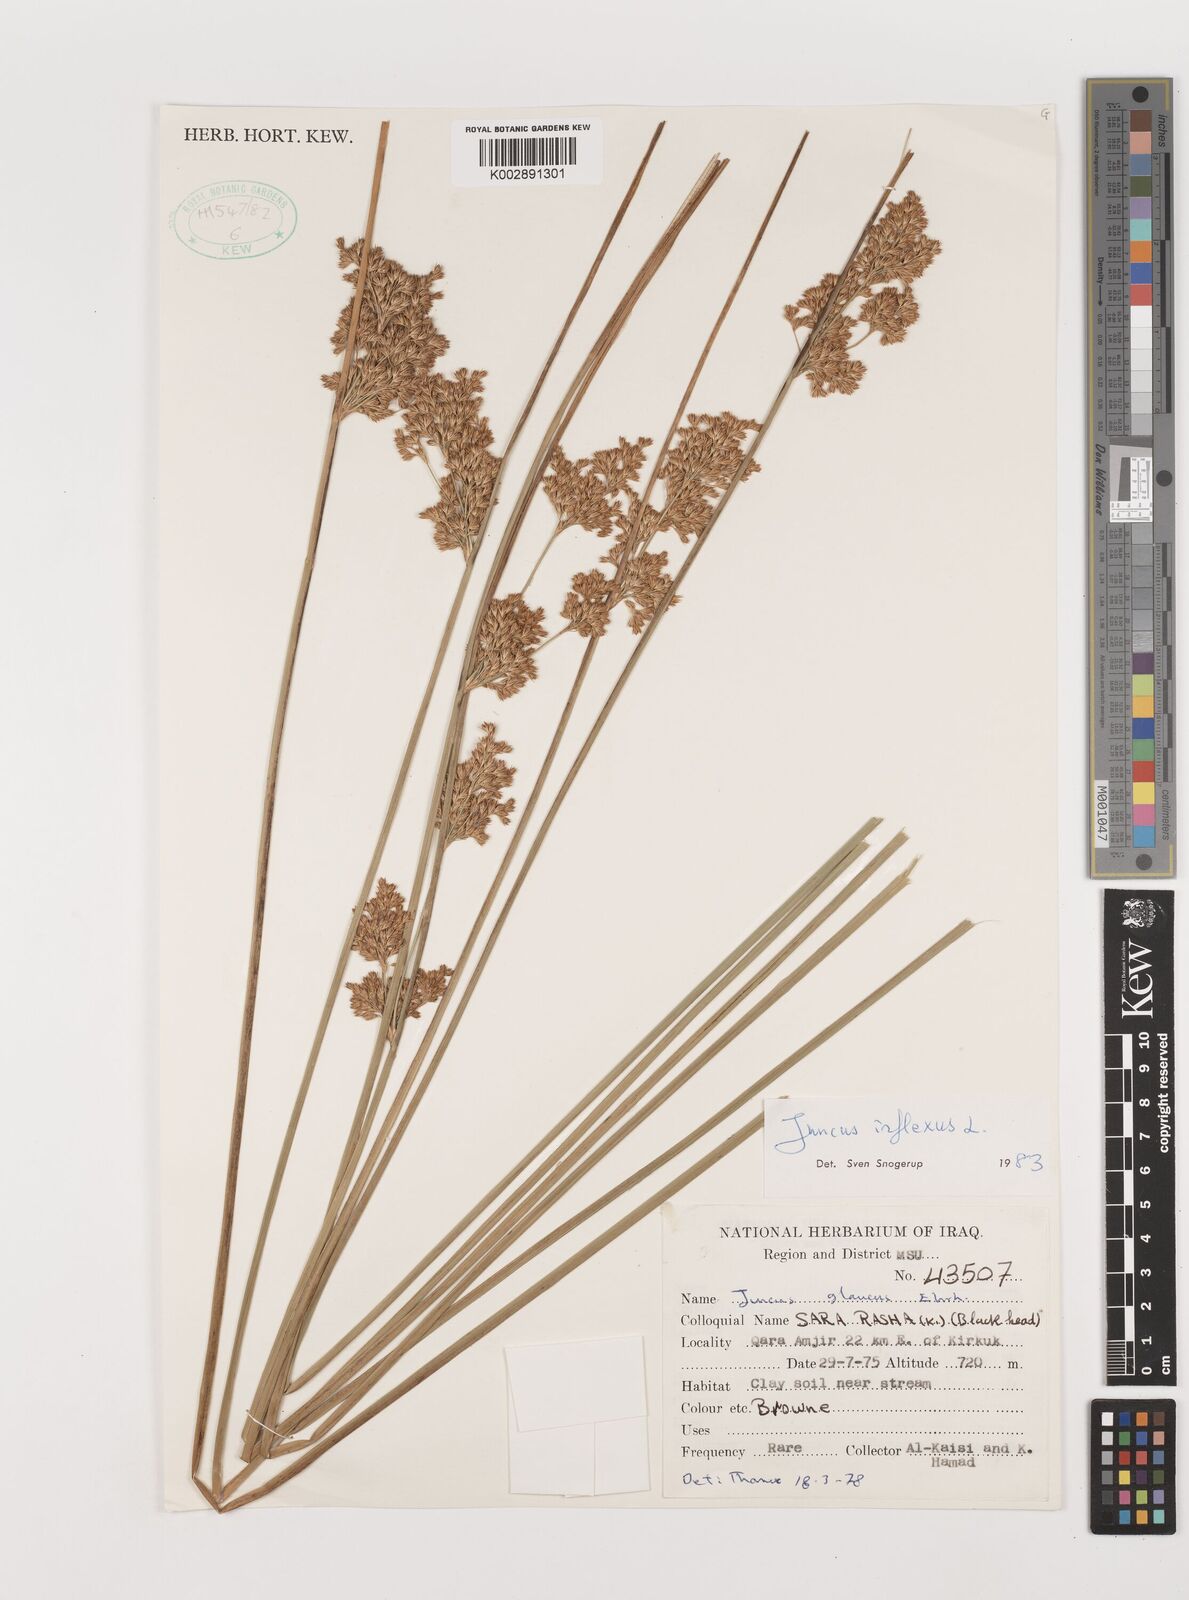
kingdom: Plantae
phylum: Tracheophyta
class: Liliopsida
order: Poales
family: Juncaceae
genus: Juncus
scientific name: Juncus inflexus
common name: Hard rush
